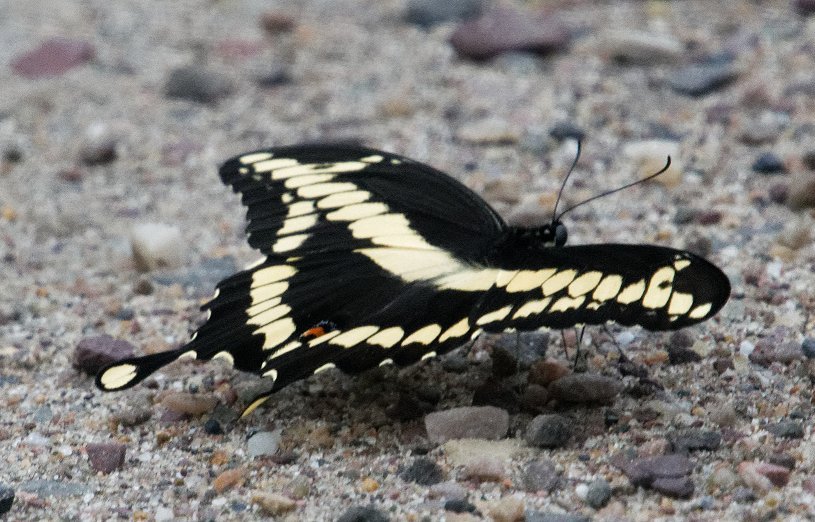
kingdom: Animalia
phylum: Arthropoda
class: Insecta
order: Lepidoptera
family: Papilionidae
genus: Papilio
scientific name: Papilio cresphontes
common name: Eastern Giant Swallowtail
